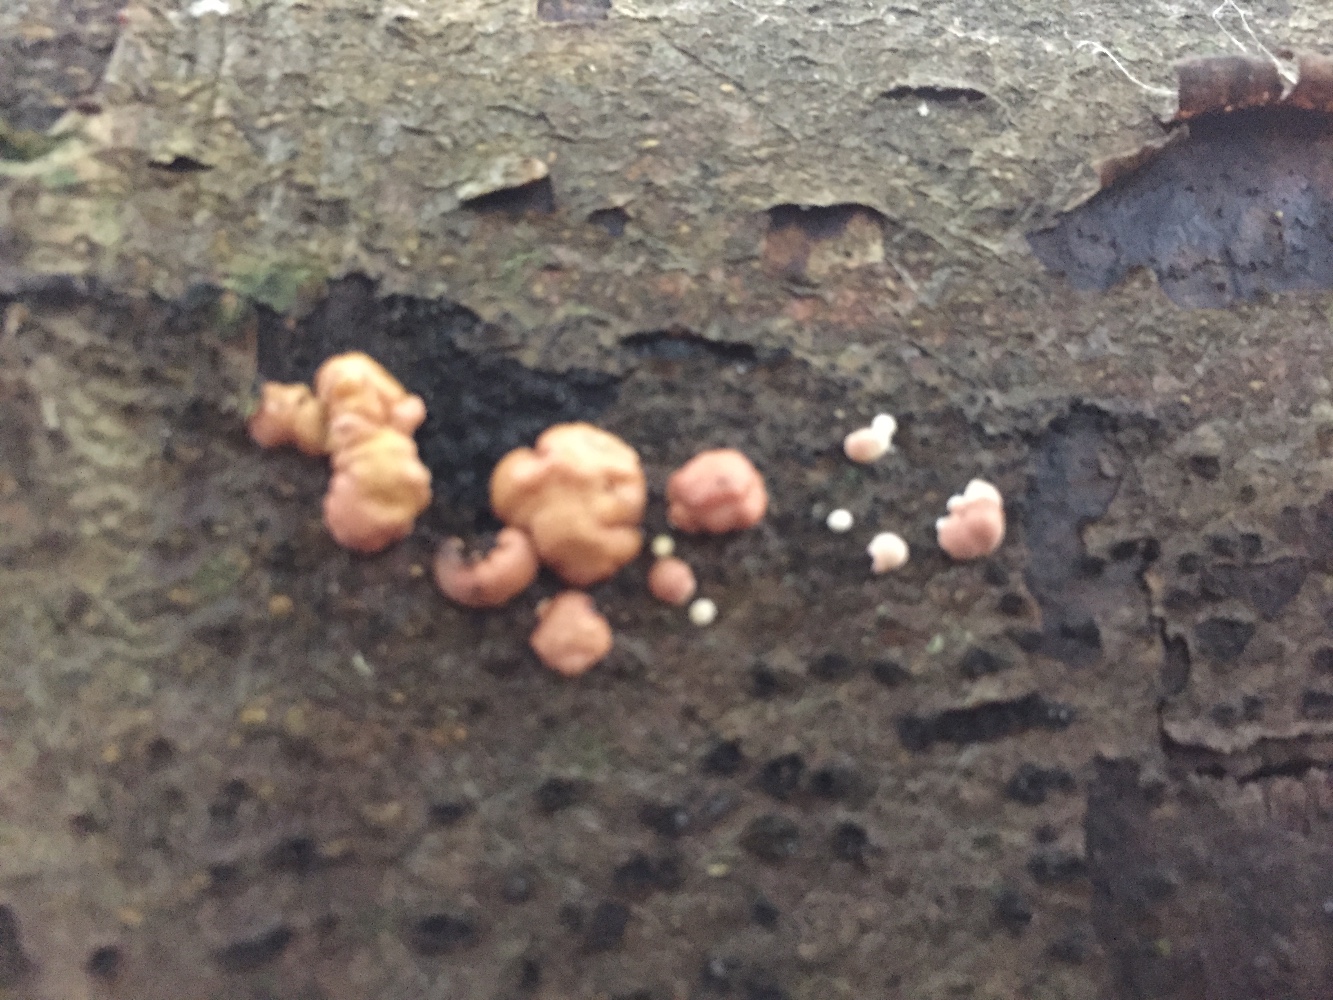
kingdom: Fungi
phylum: Ascomycota
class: Sordariomycetes
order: Hypocreales
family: Hypocreaceae
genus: Trichoderma
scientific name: Trichoderma europaeum
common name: rosabrun kødkerne
